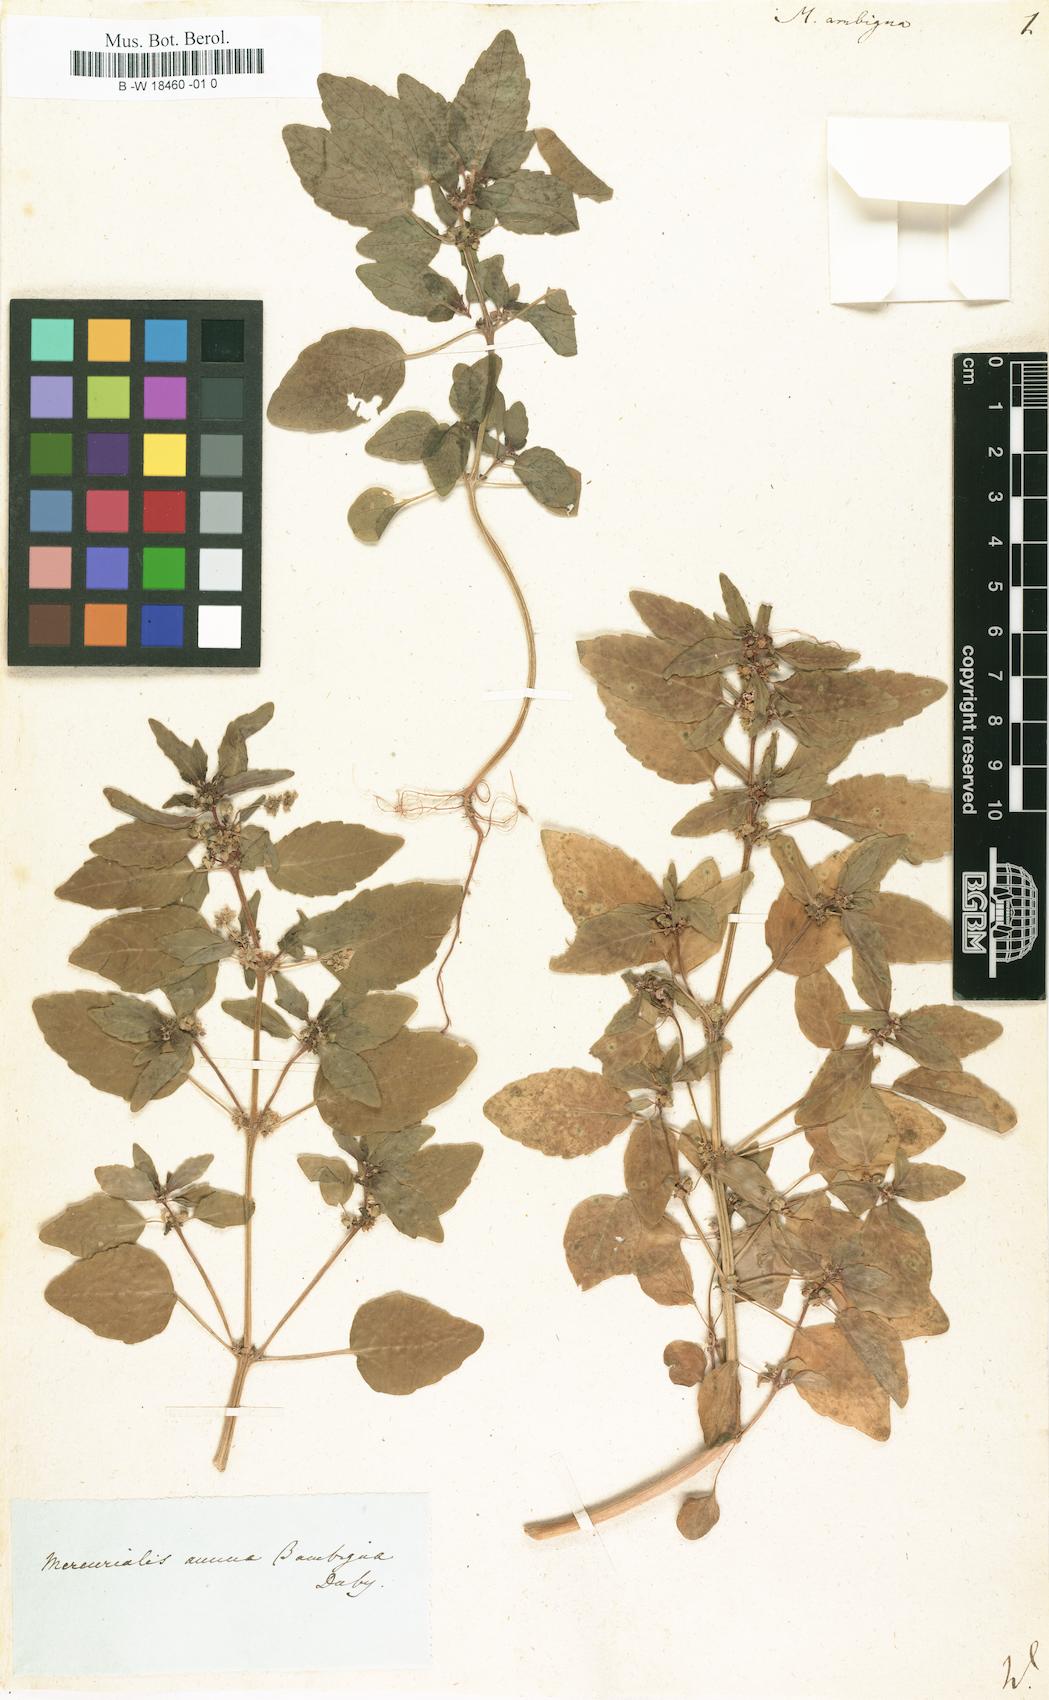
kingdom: Plantae
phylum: Tracheophyta
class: Magnoliopsida
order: Malpighiales
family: Euphorbiaceae
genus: Mercurialis
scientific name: Mercurialis annua
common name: Annual mercury
